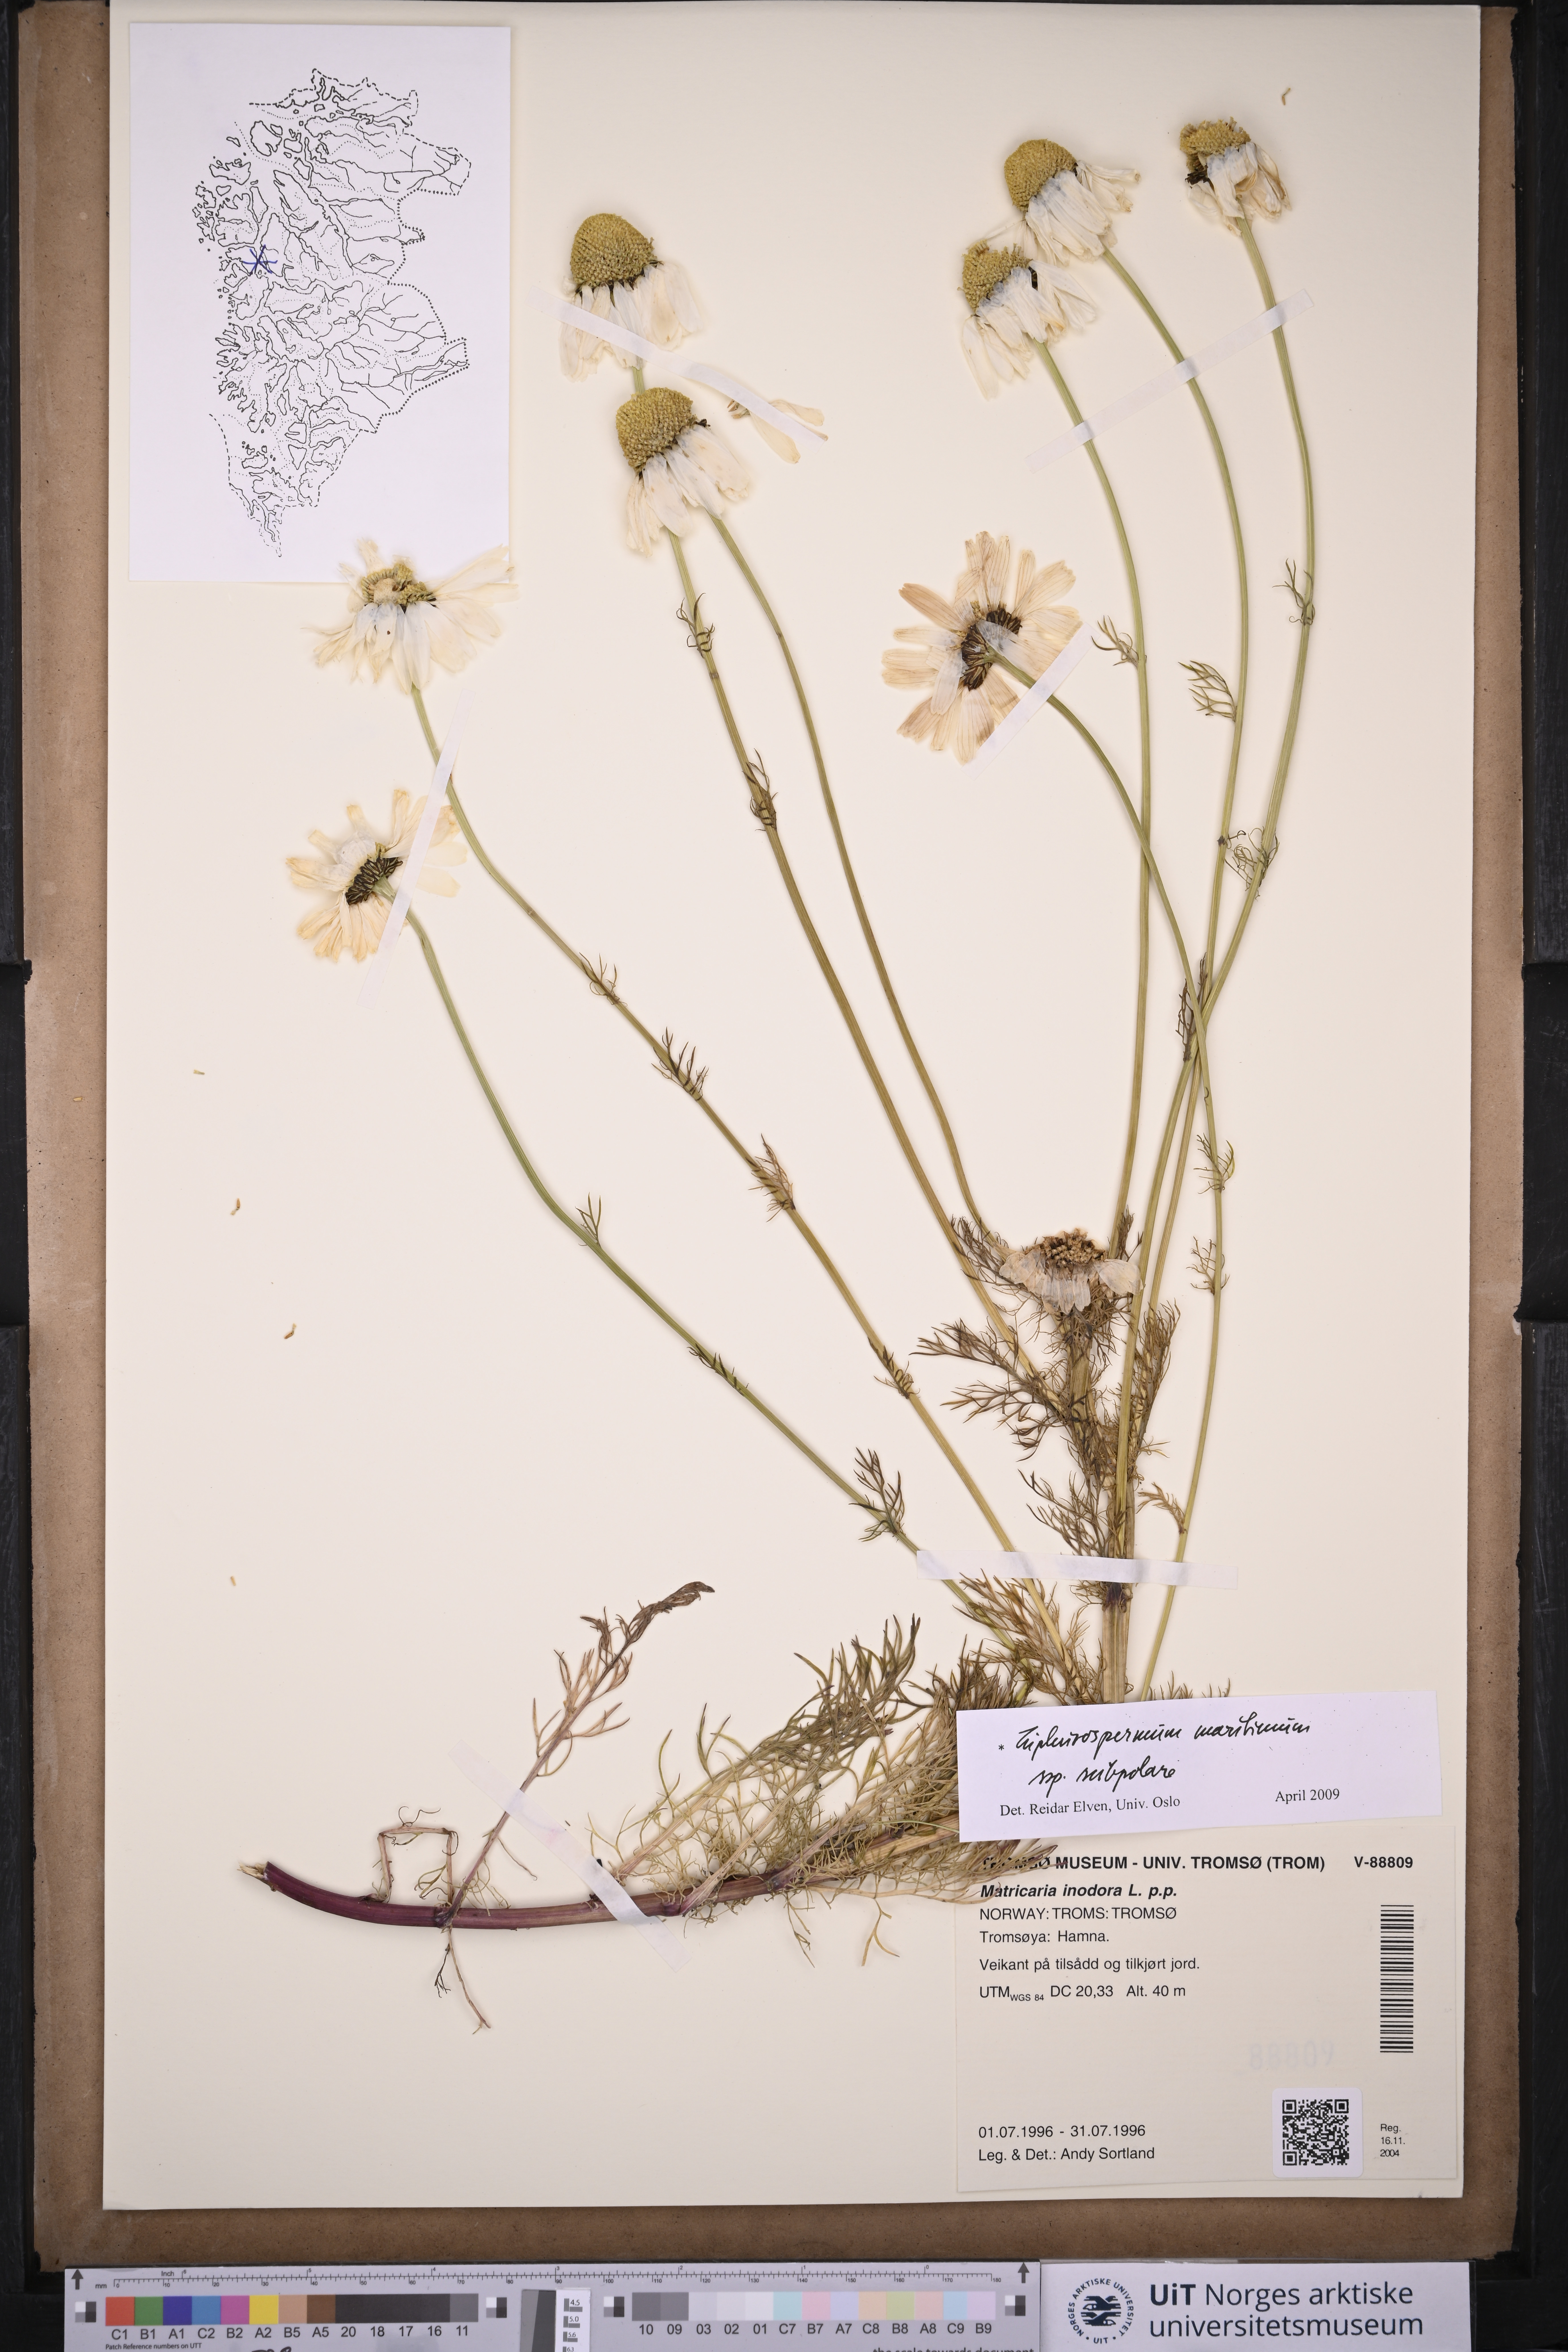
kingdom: Plantae
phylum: Tracheophyta
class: Magnoliopsida
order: Asterales
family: Asteraceae
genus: Tripleurospermum
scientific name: Tripleurospermum subpolare
